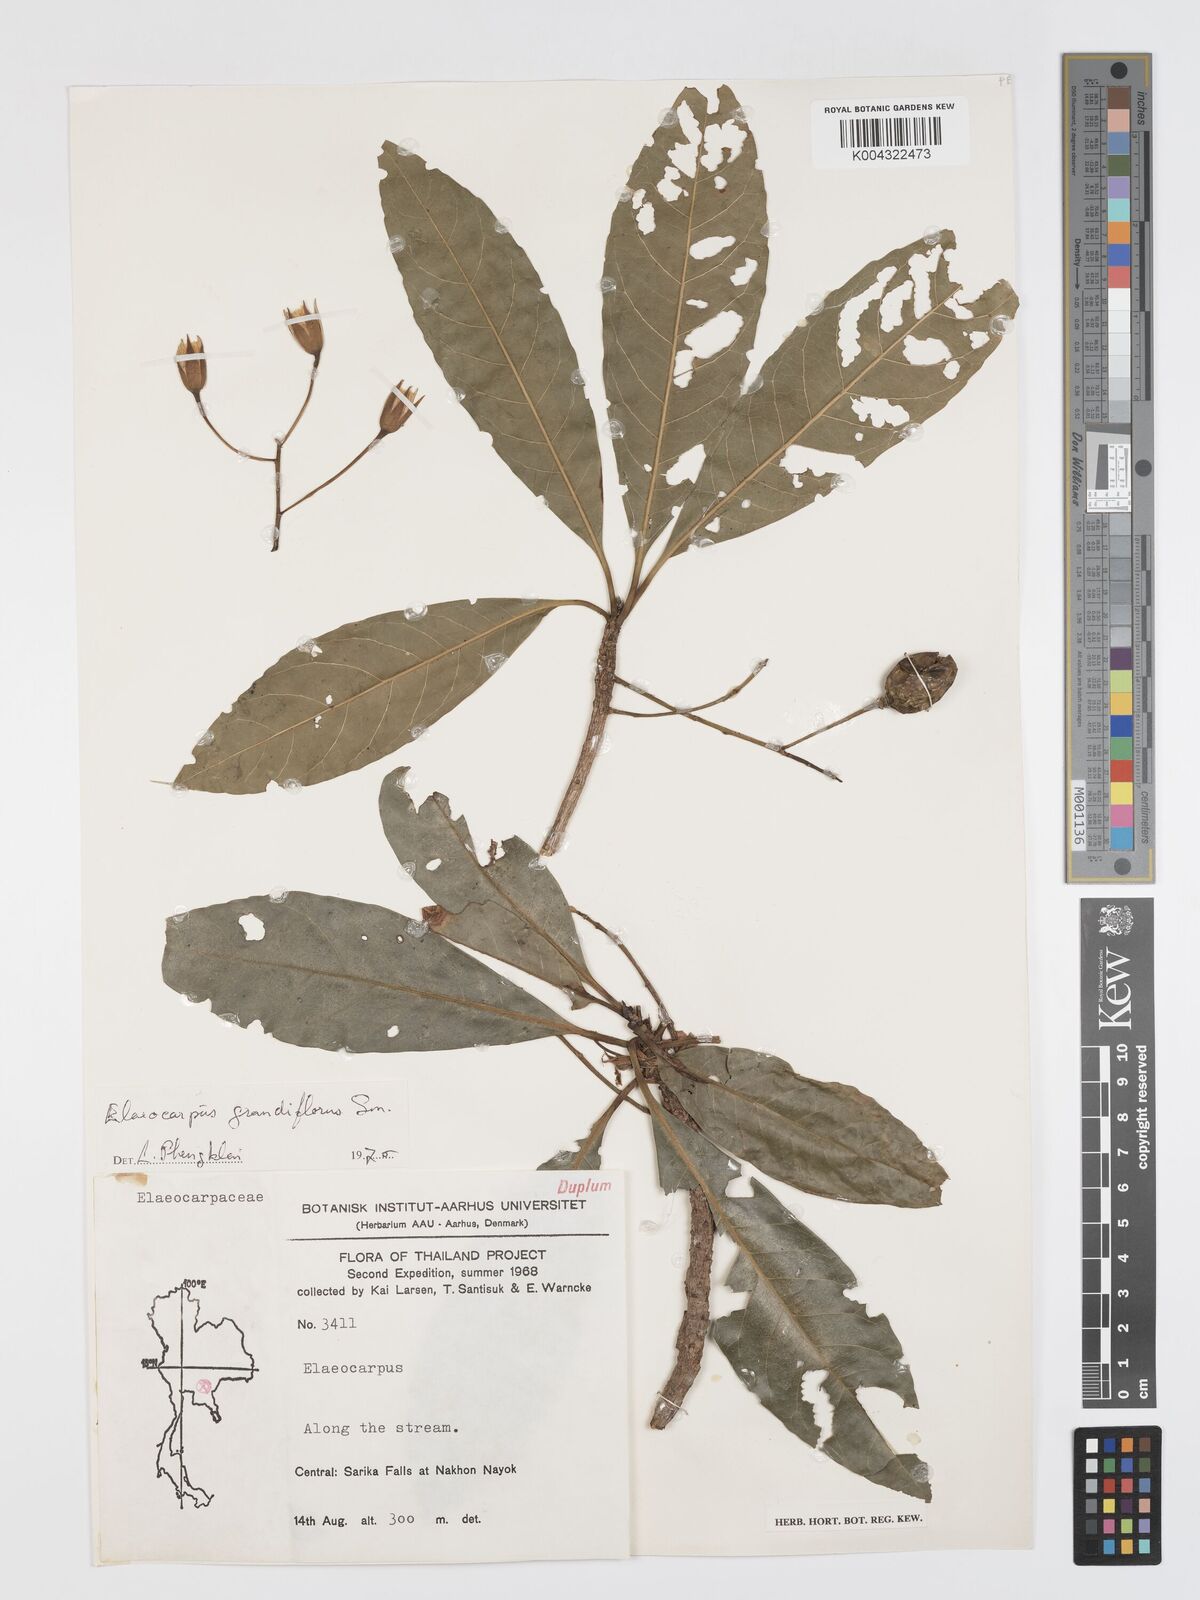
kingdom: Plantae
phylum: Tracheophyta
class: Magnoliopsida
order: Oxalidales
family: Elaeocarpaceae
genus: Elaeocarpus
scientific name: Elaeocarpus grandiflorus
